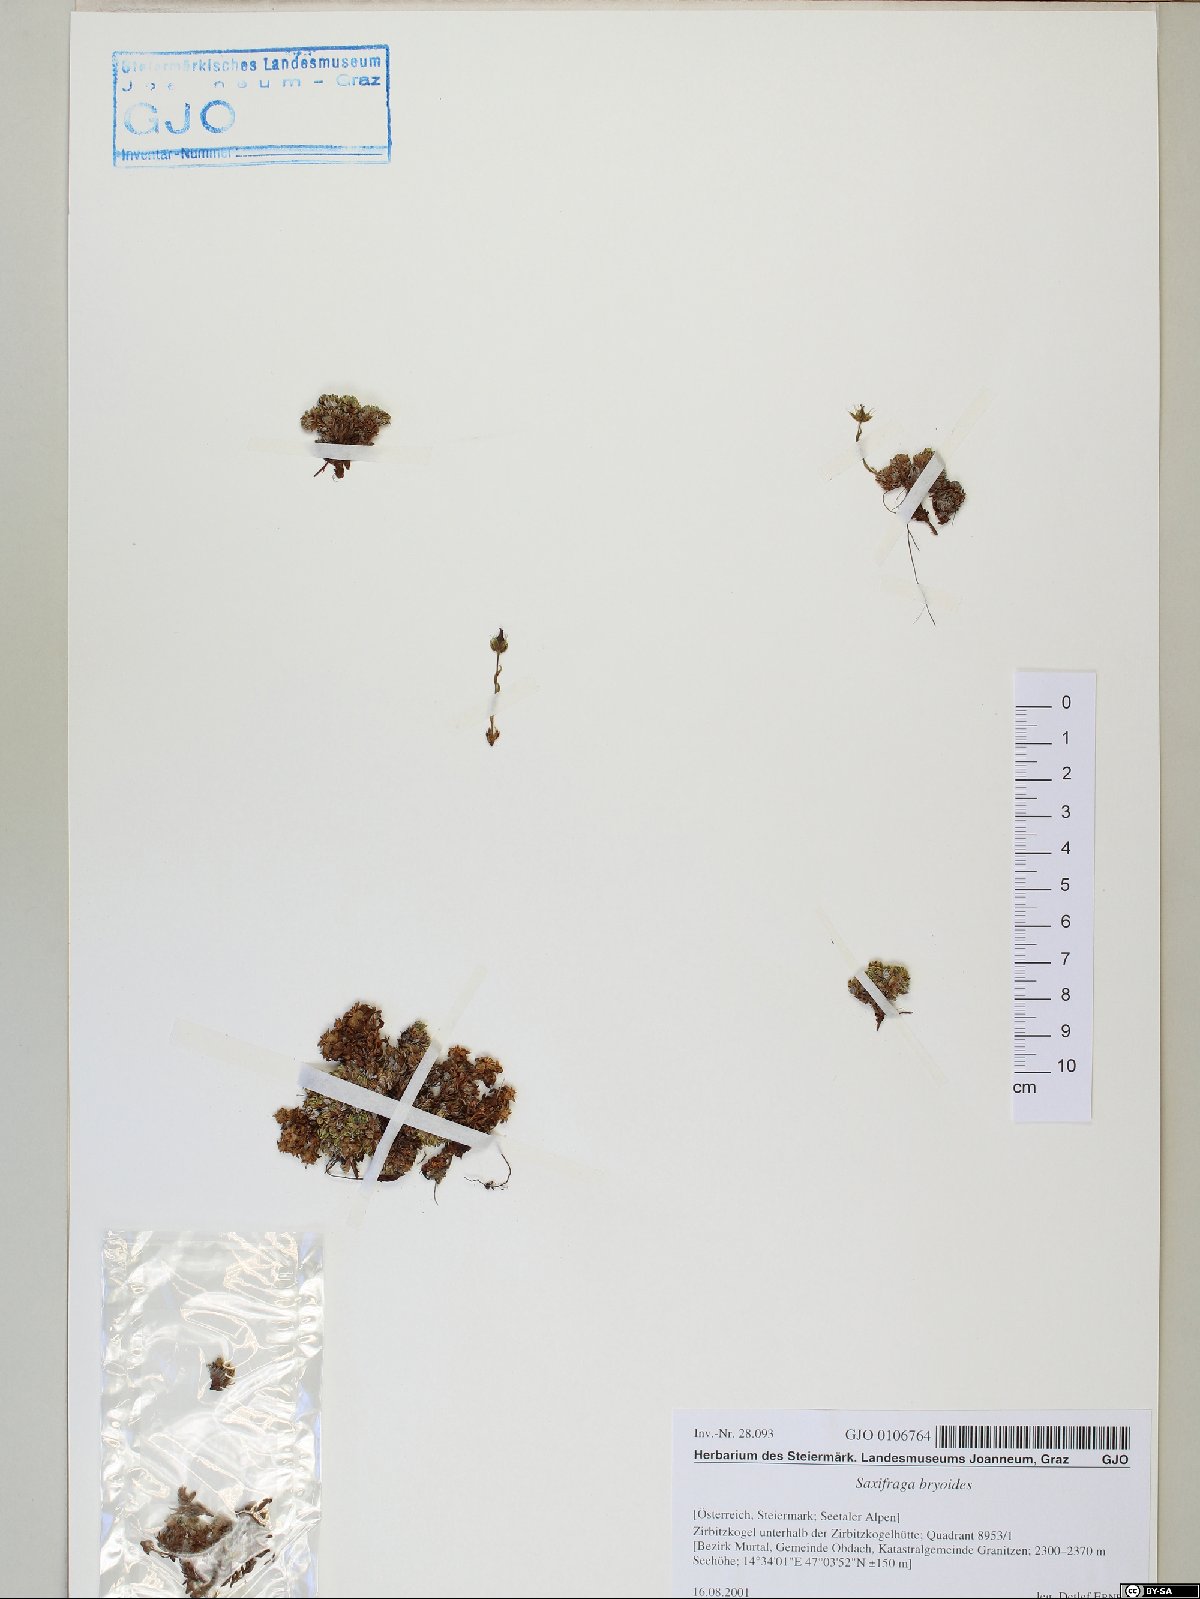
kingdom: Plantae
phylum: Tracheophyta
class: Magnoliopsida
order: Saxifragales
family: Saxifragaceae
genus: Saxifraga
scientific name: Saxifraga bryoides
